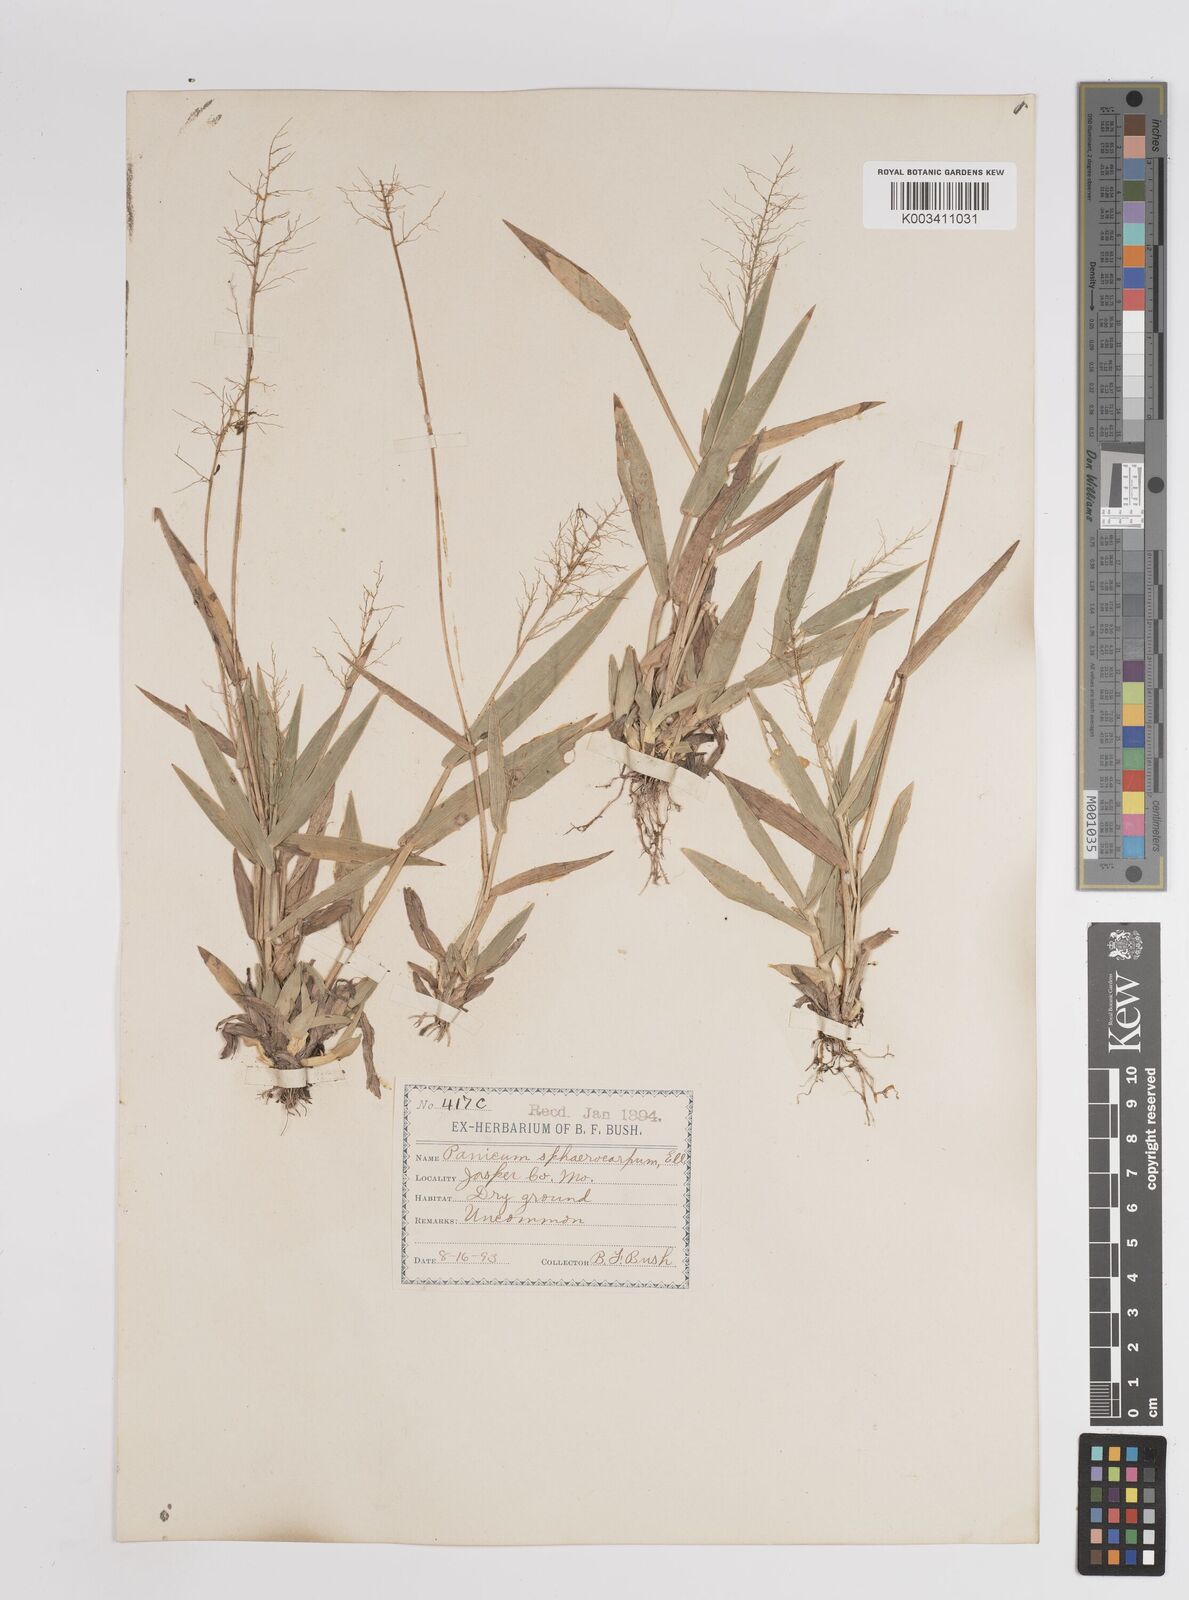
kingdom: Plantae
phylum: Tracheophyta
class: Liliopsida
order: Poales
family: Poaceae
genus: Setaria
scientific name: Setaria tenax
